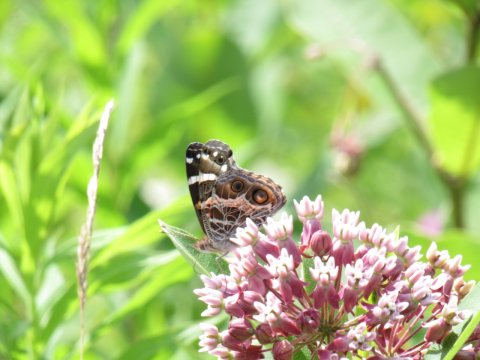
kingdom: Animalia
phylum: Arthropoda
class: Insecta
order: Lepidoptera
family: Nymphalidae
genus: Vanessa
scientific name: Vanessa virginiensis
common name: American Lady
